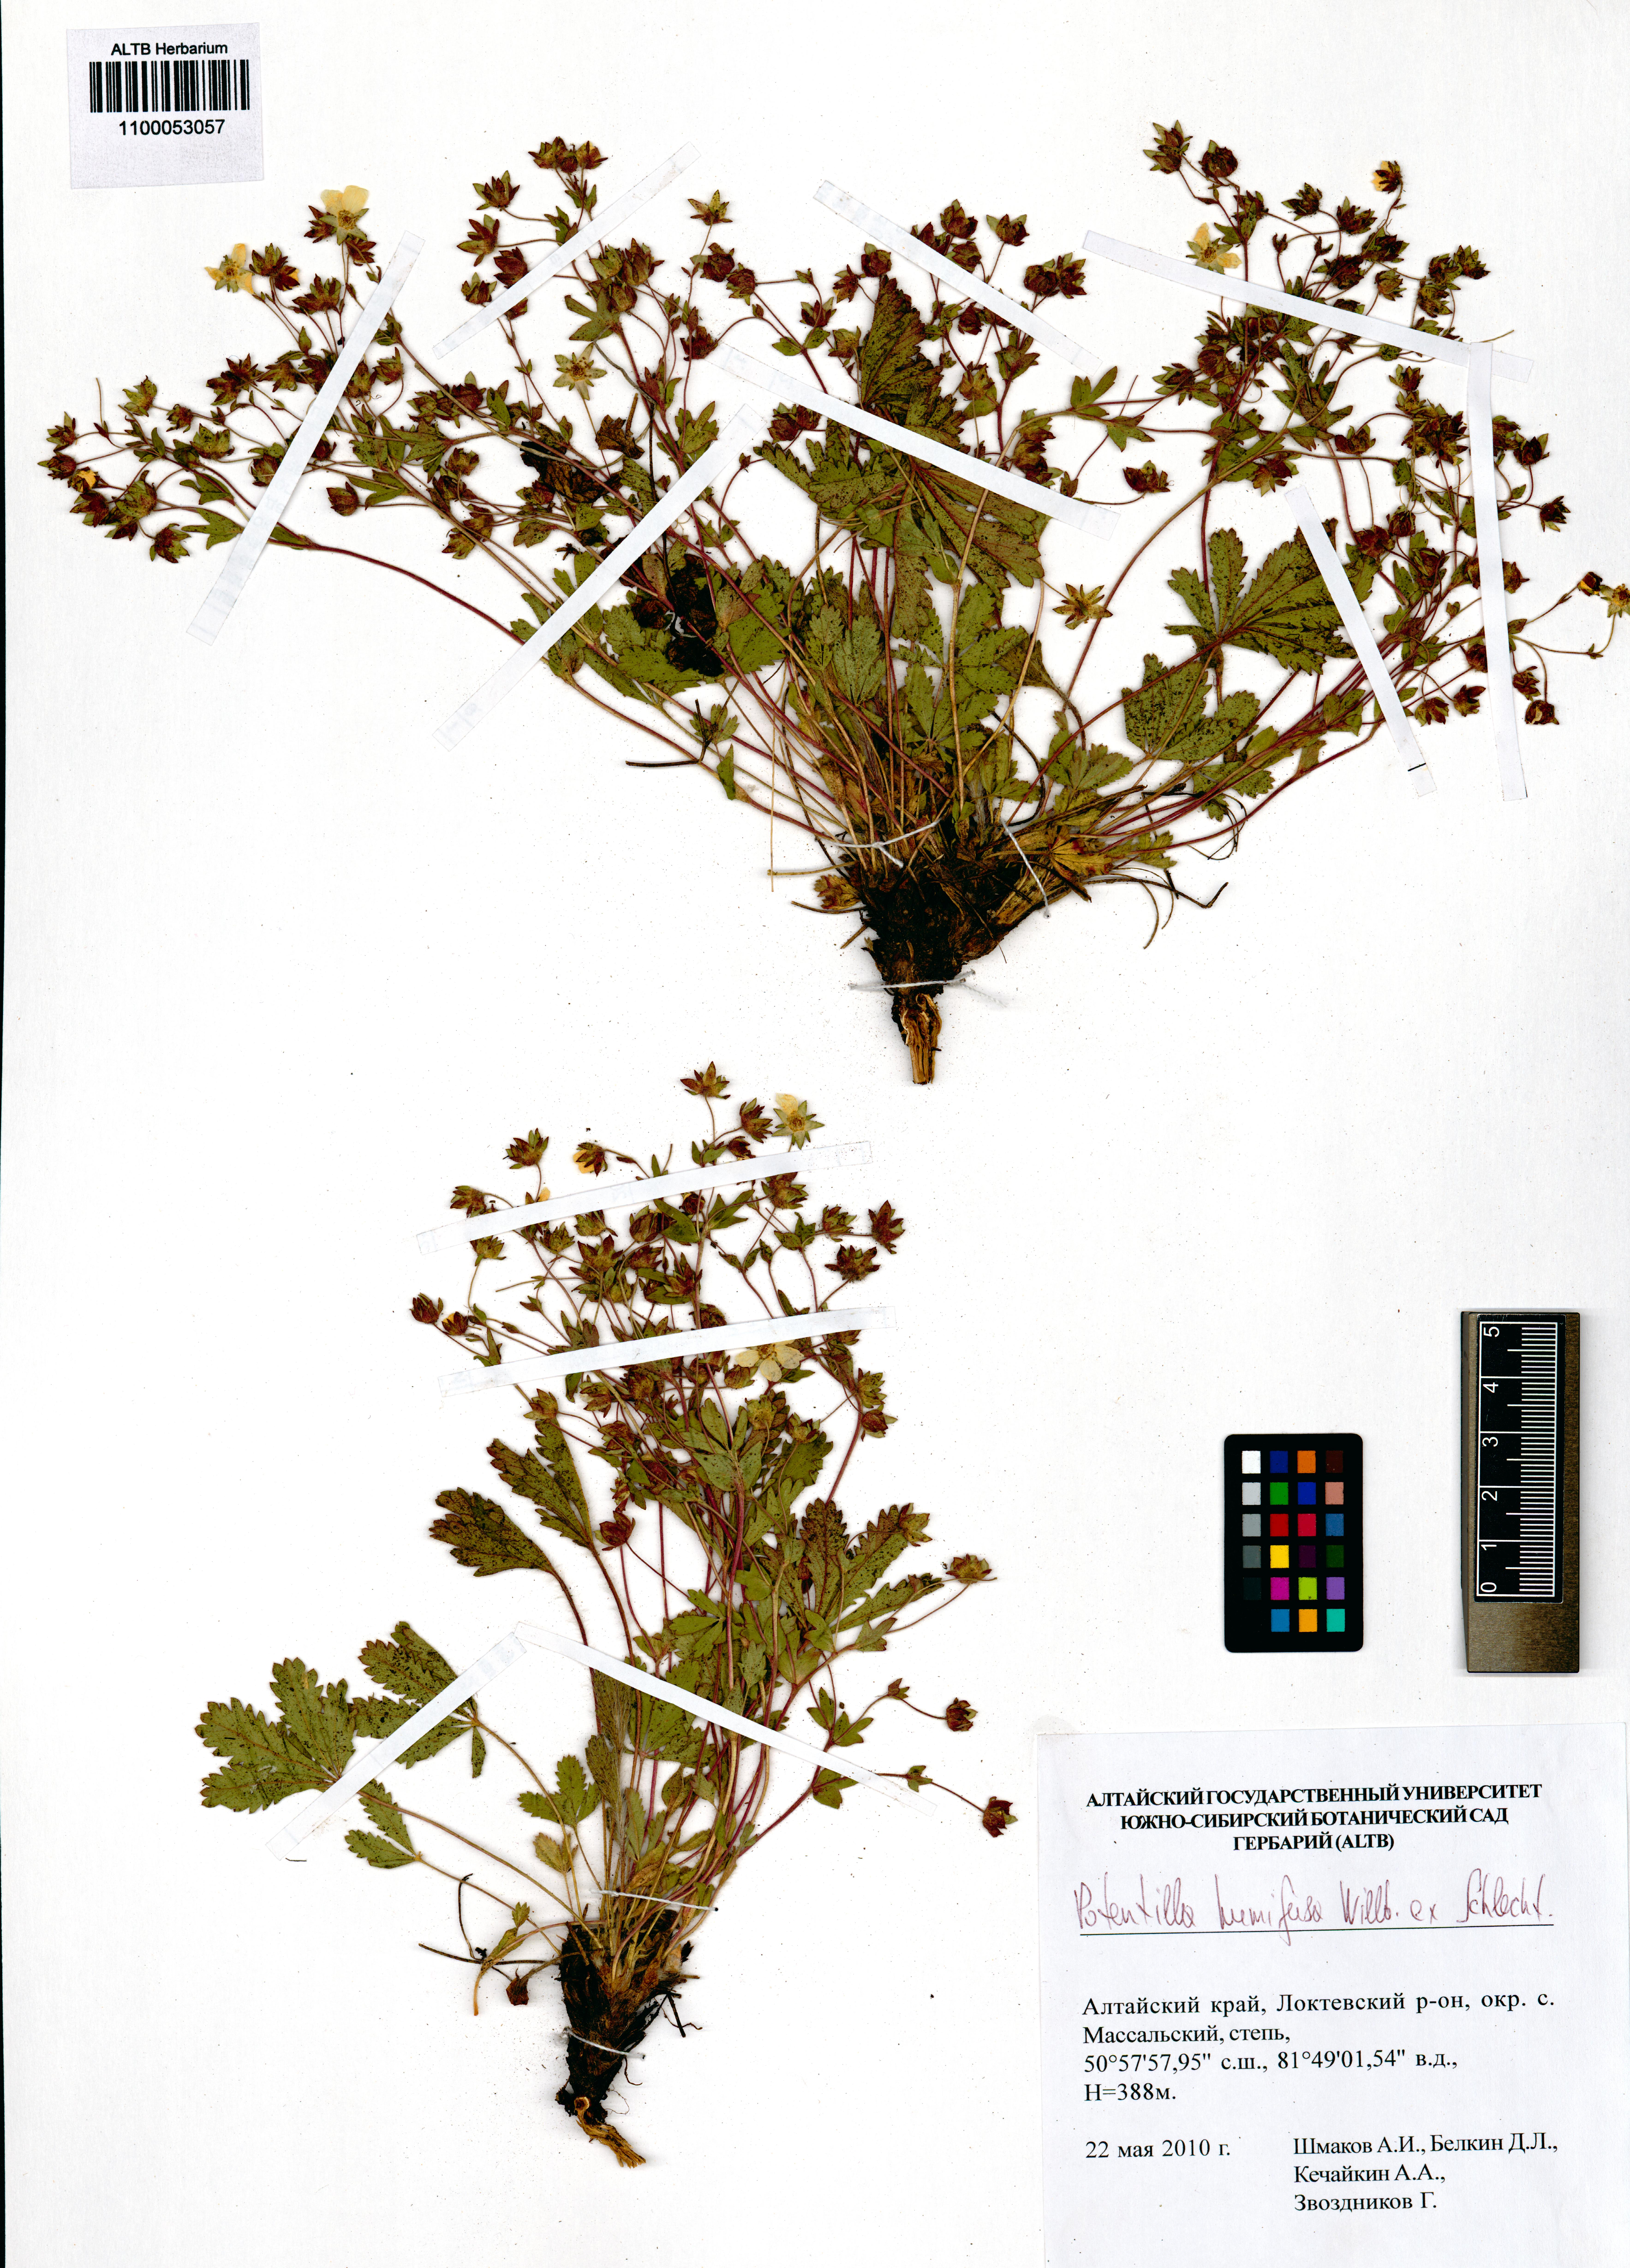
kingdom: Plantae
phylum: Tracheophyta
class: Magnoliopsida
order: Rosales
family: Rosaceae
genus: Potentilla
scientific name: Potentilla humifusa
